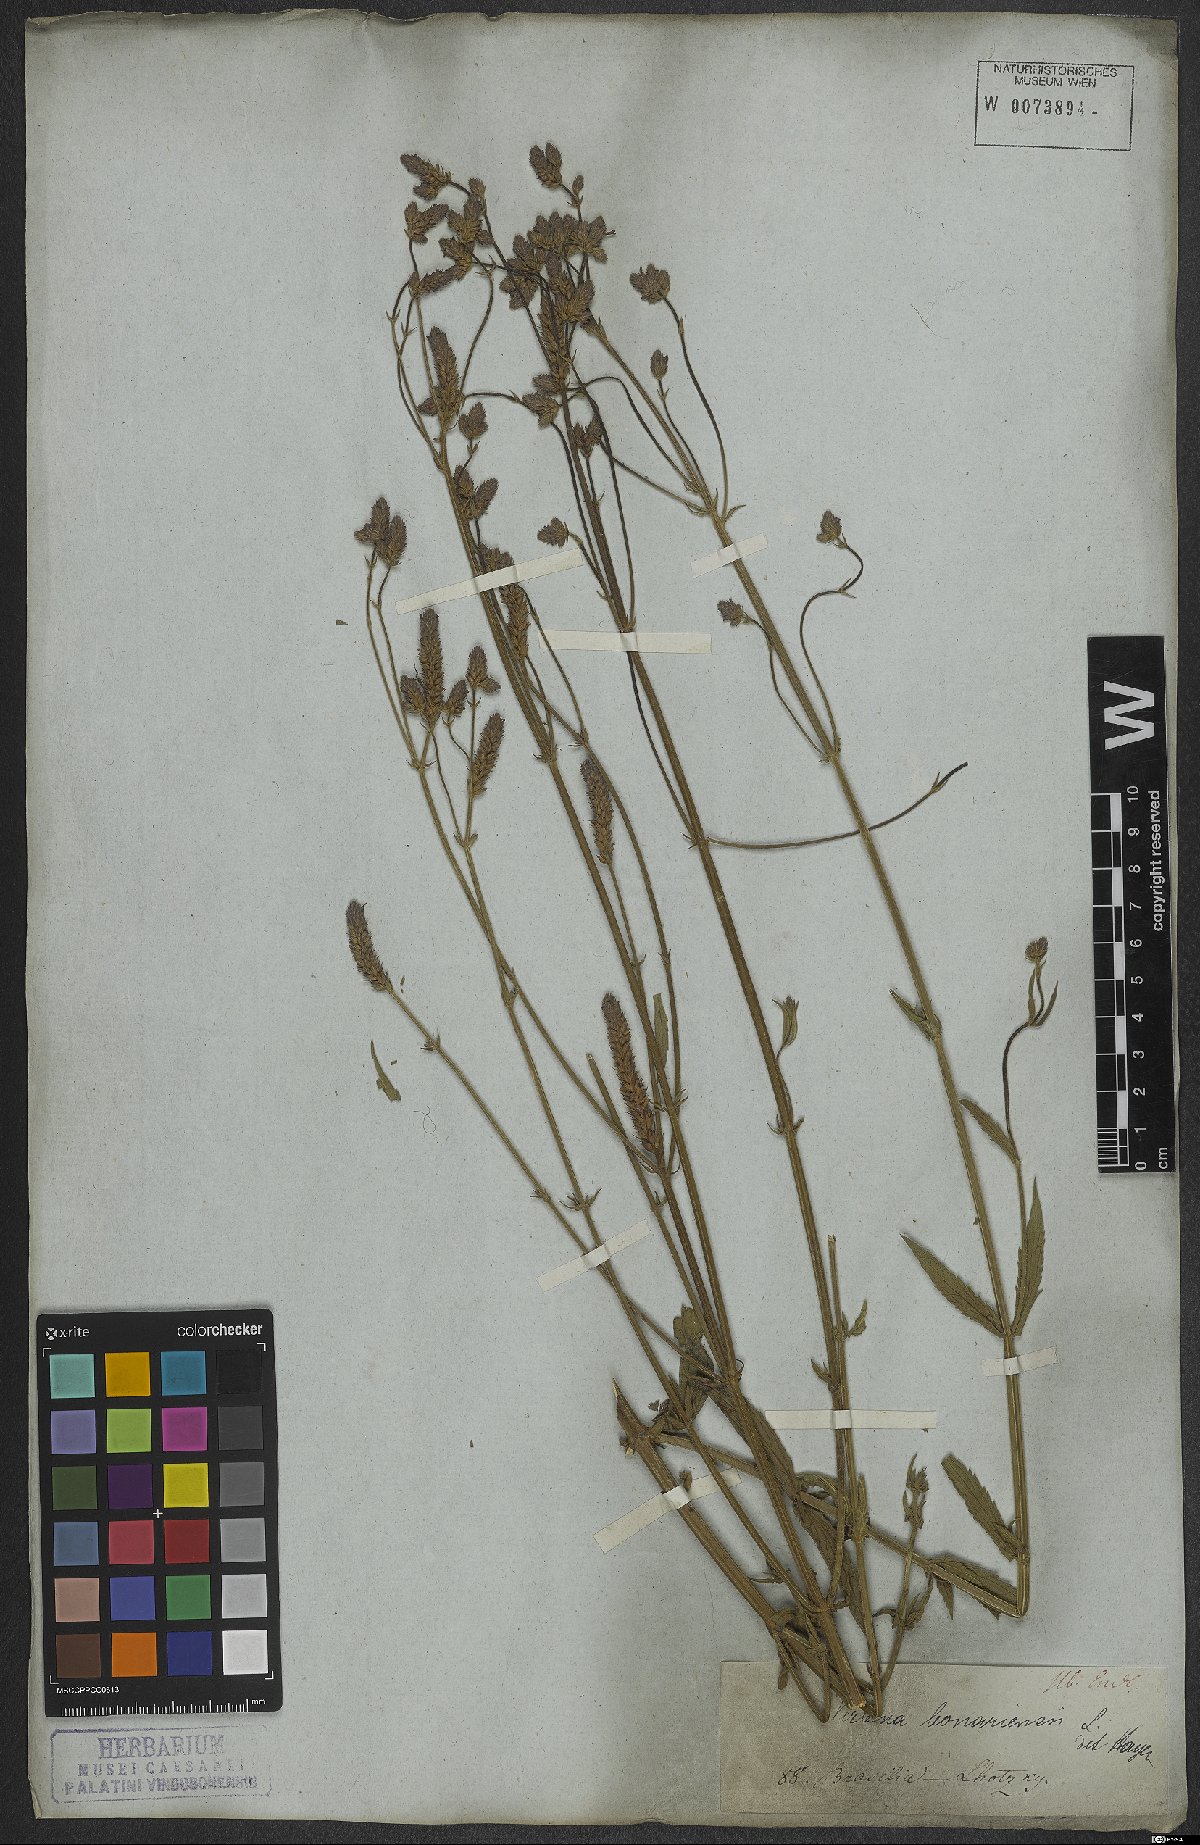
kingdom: Plantae
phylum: Tracheophyta
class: Magnoliopsida
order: Lamiales
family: Verbenaceae
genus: Verbena
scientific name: Verbena bonariensis
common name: Purpletop vervain
